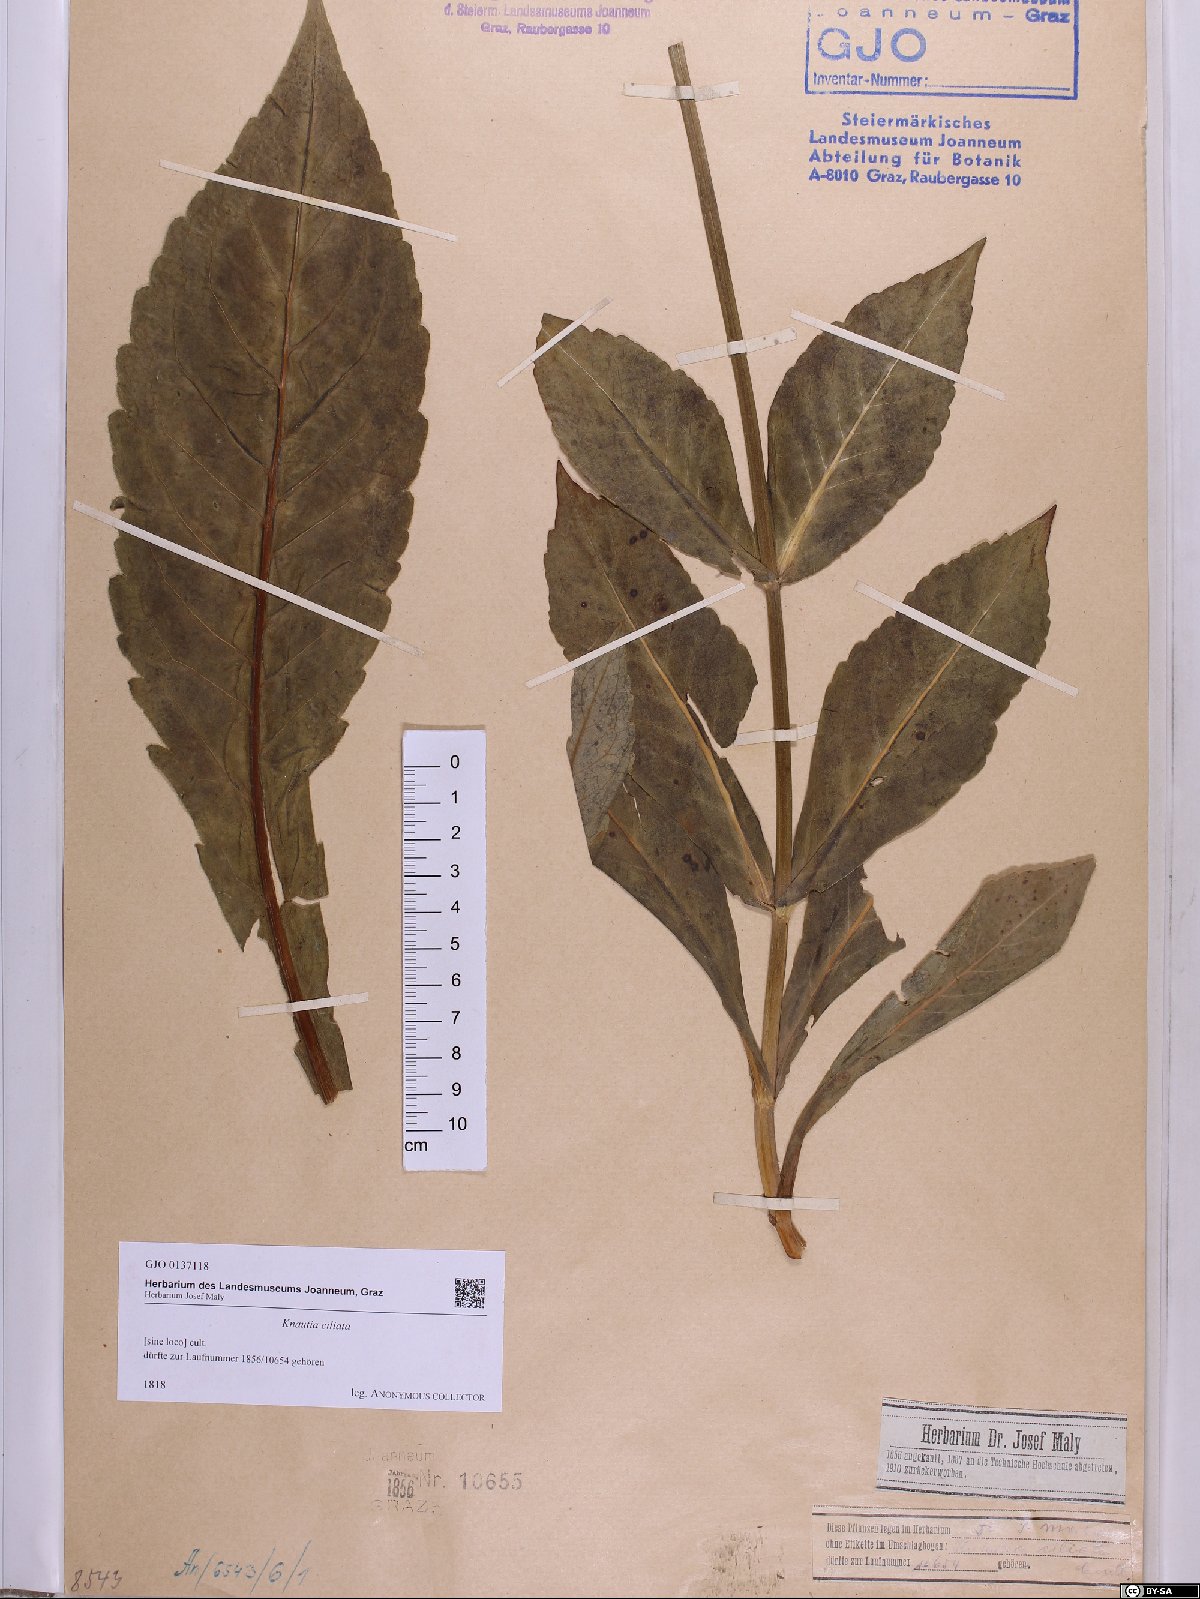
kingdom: Plantae
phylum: Tracheophyta
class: Magnoliopsida
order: Dipsacales
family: Caprifoliaceae
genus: Knautia
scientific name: Knautia kitaibelii
